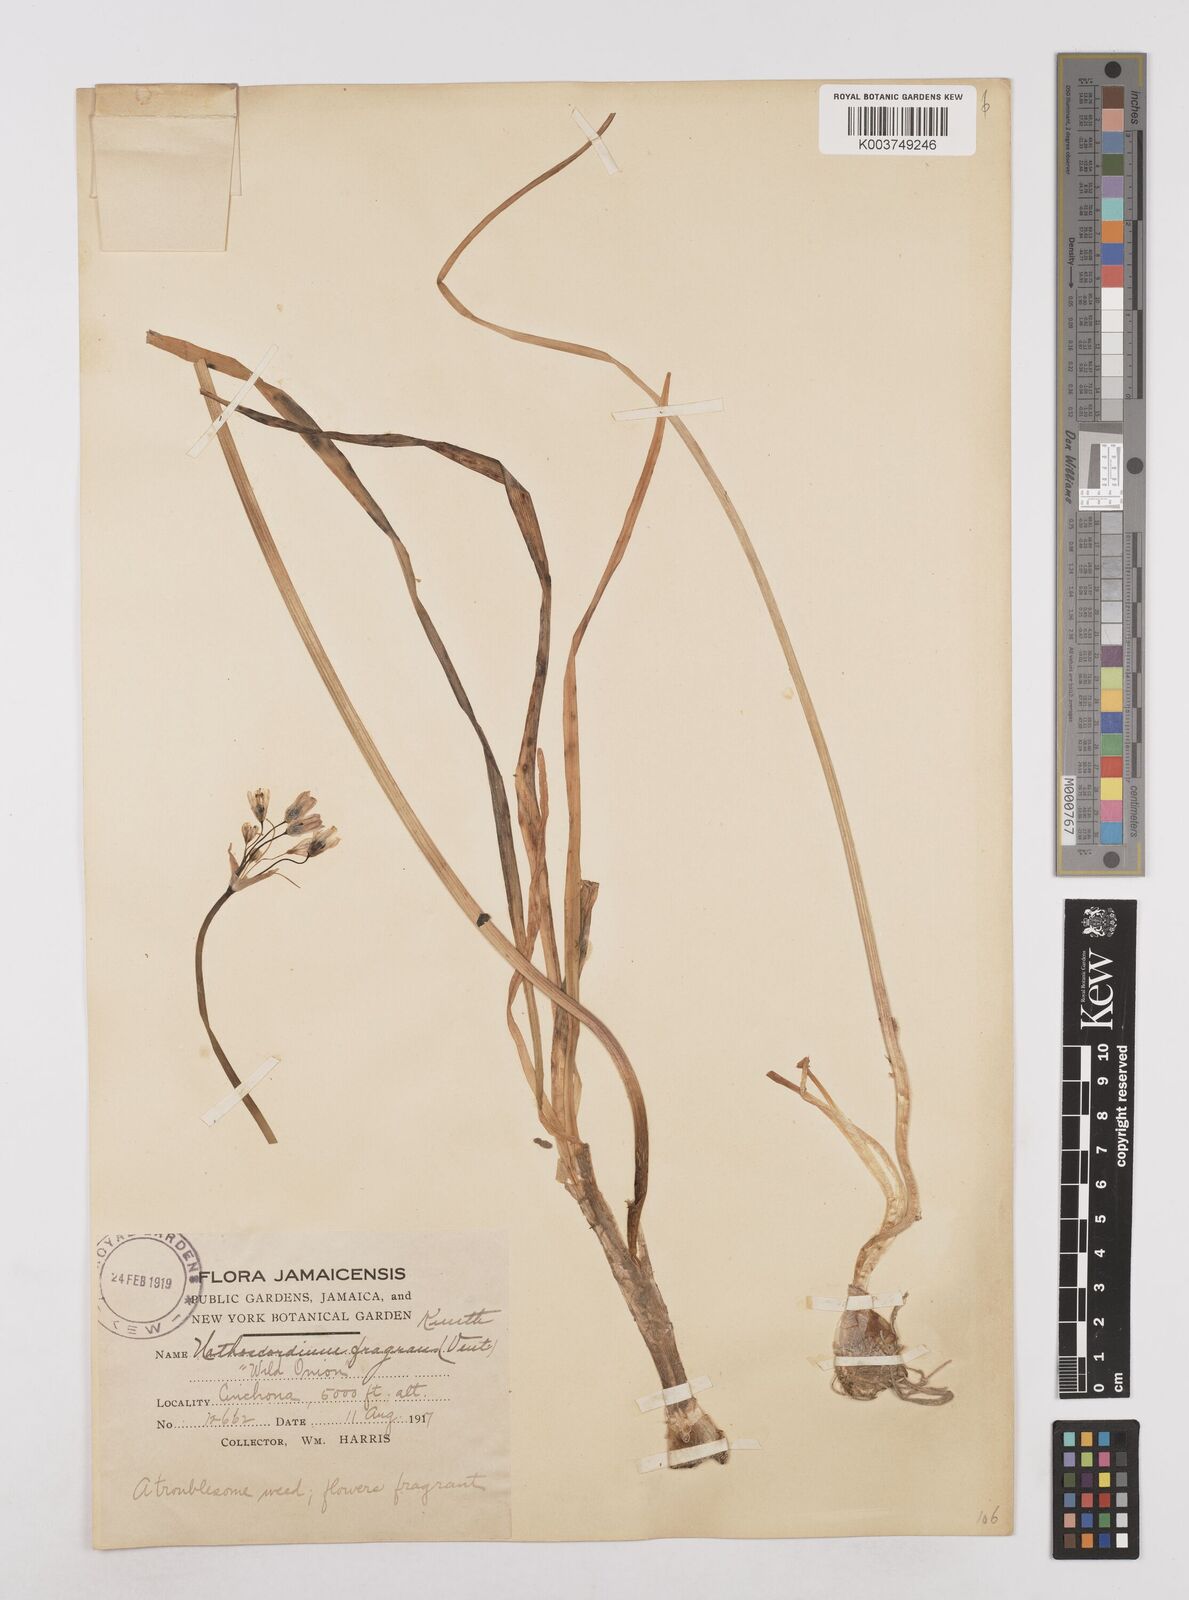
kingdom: Plantae
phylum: Tracheophyta
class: Liliopsida
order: Asparagales
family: Amaryllidaceae
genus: Allium
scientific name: Allium neapolitanum
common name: Neapolitan garlic
